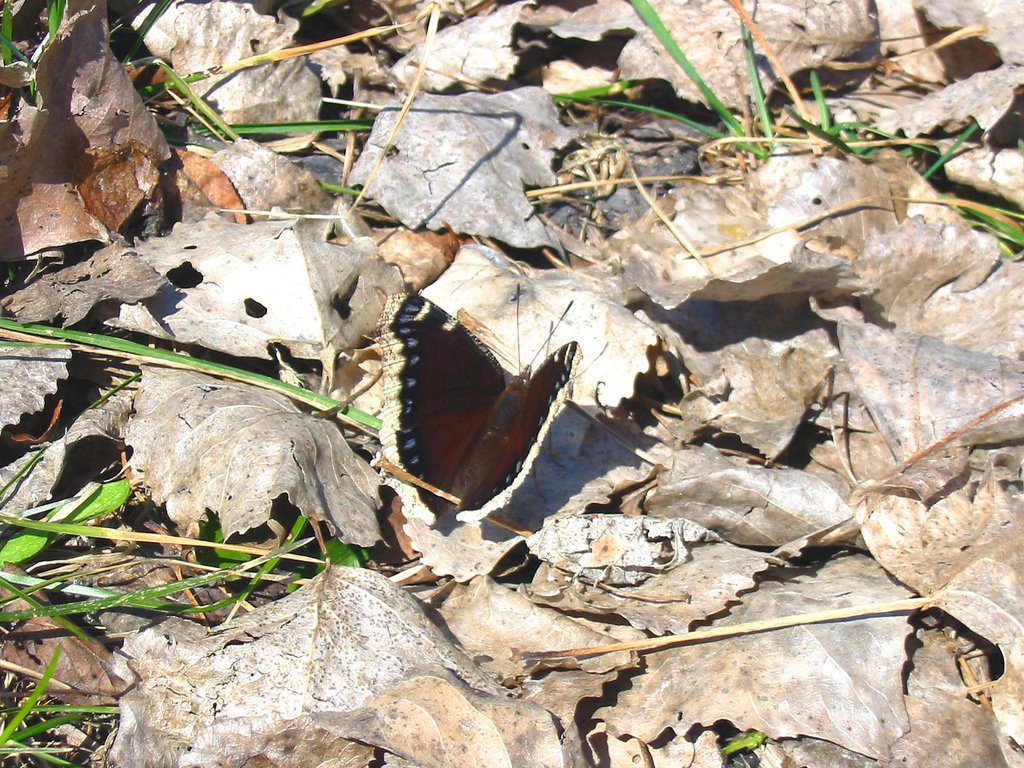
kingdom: Animalia
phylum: Arthropoda
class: Insecta
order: Lepidoptera
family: Nymphalidae
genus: Nymphalis
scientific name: Nymphalis antiopa
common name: Mourning Cloak
